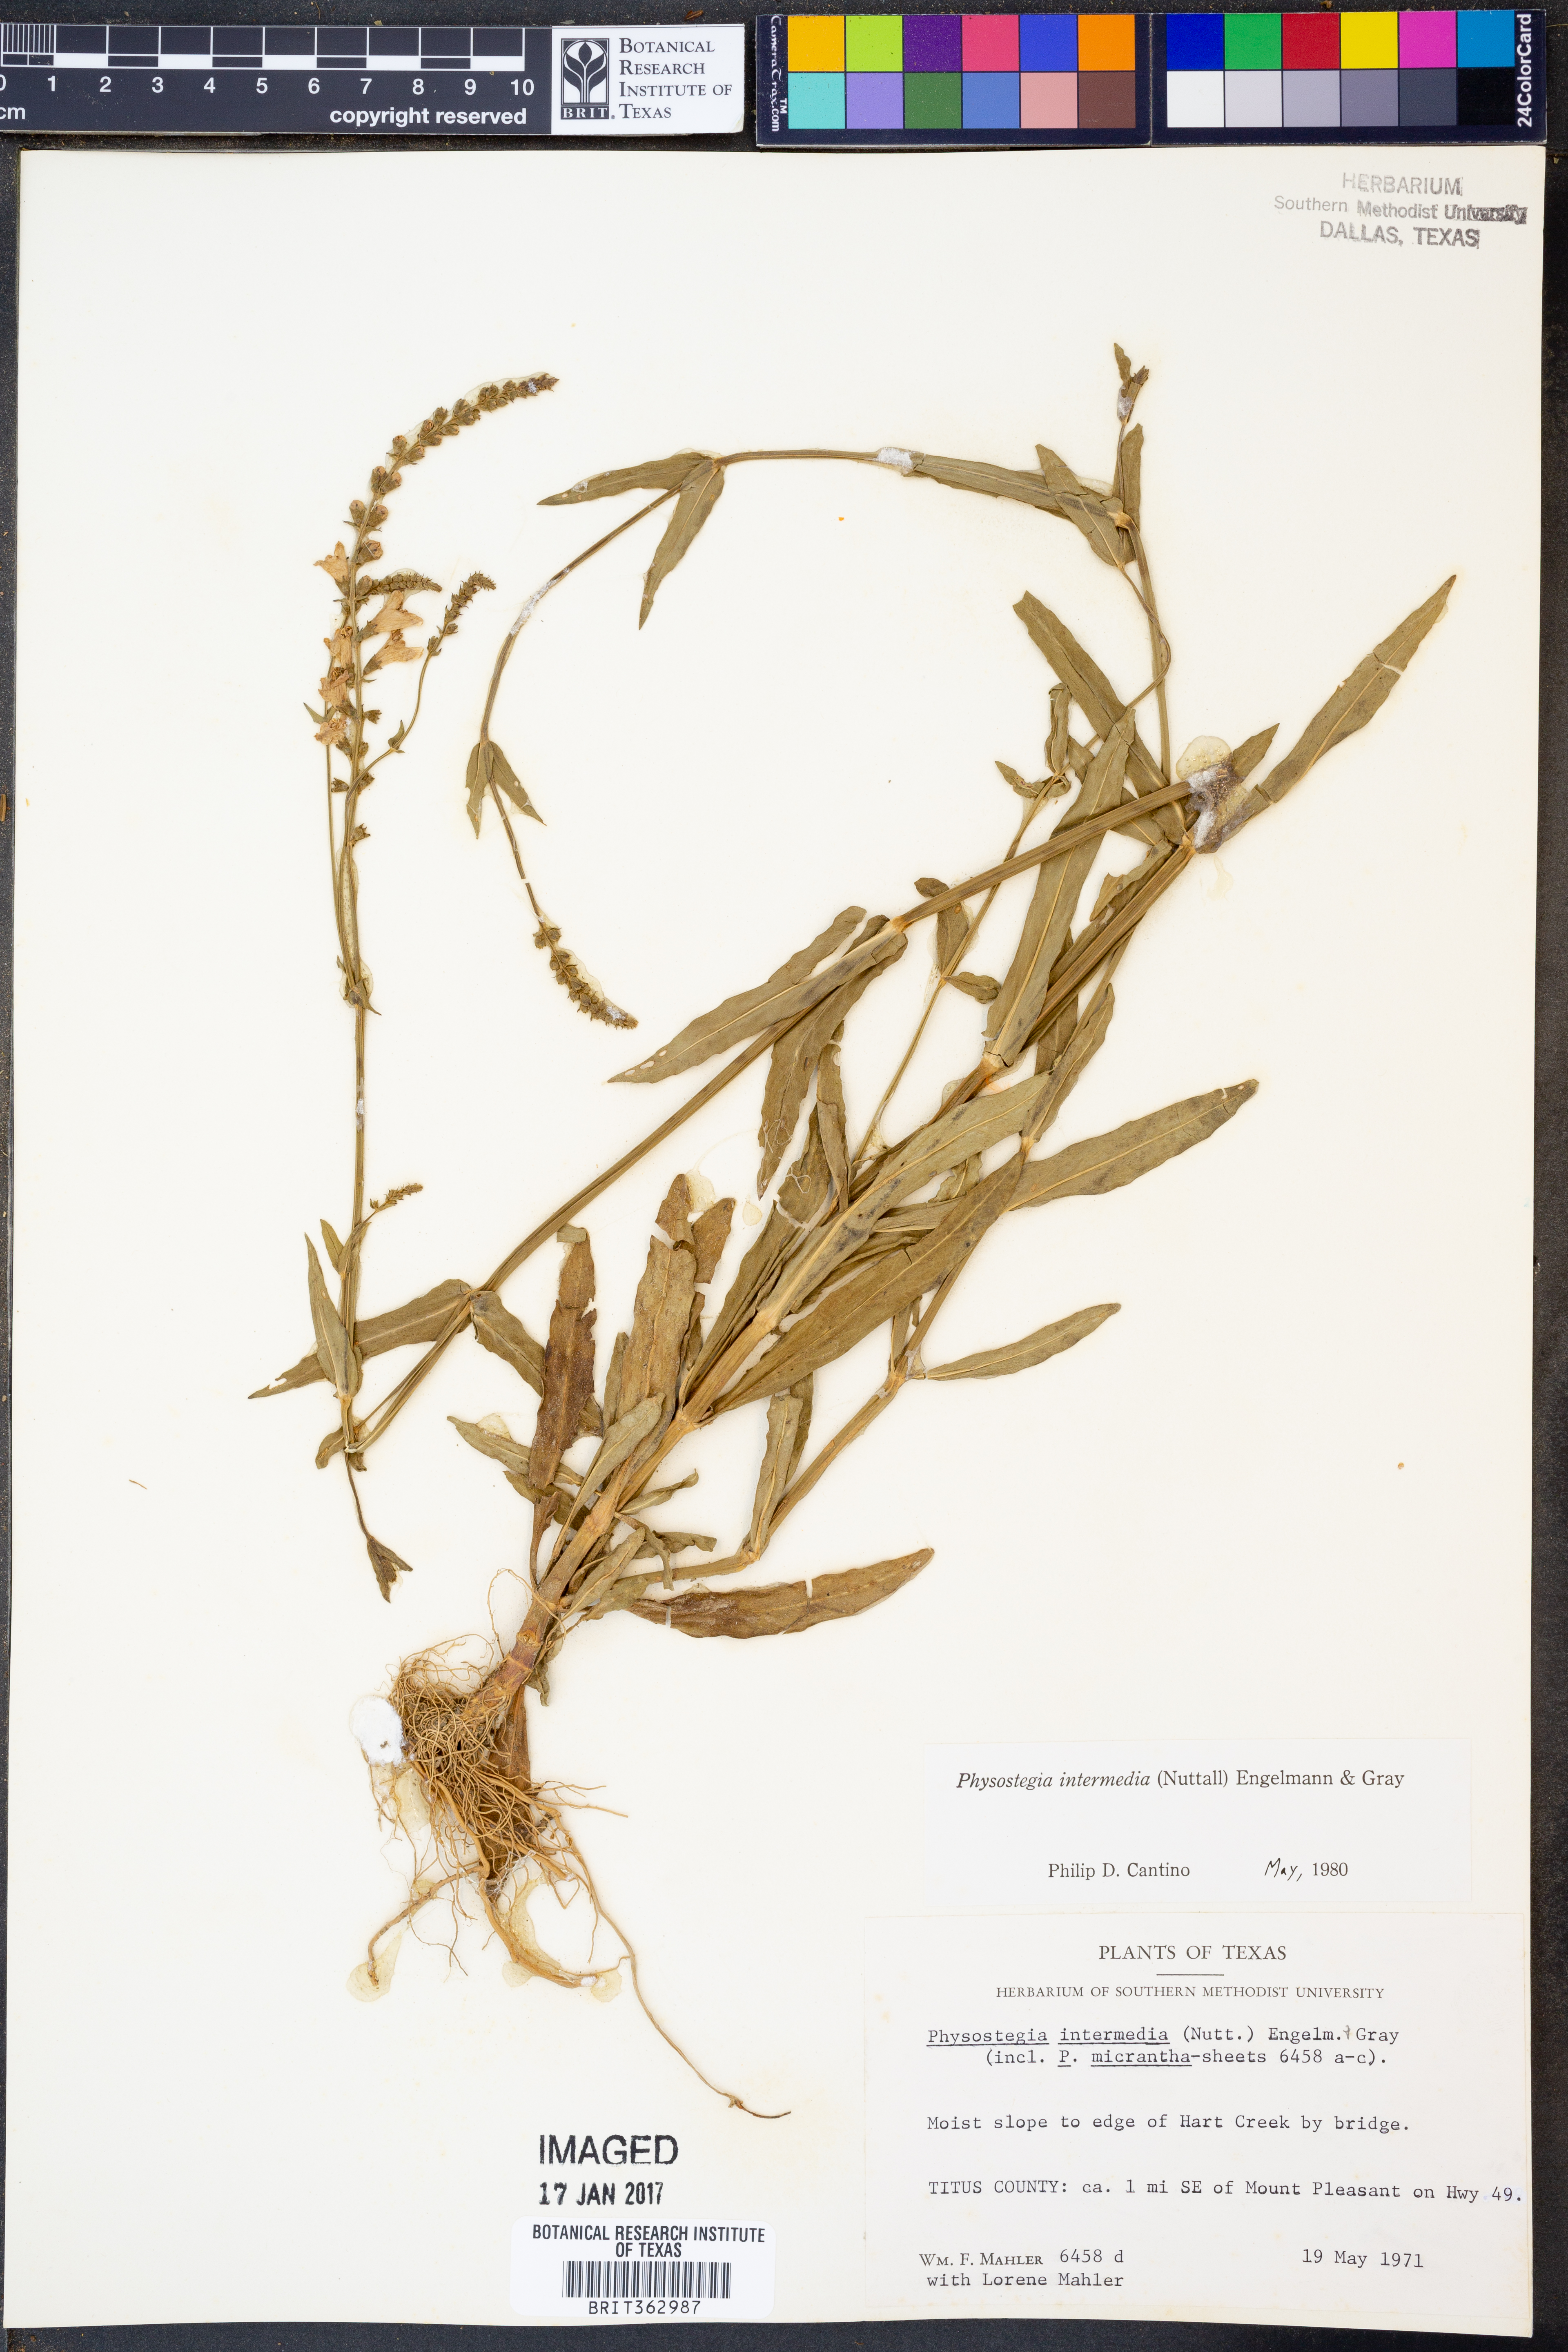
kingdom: Plantae
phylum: Tracheophyta
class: Magnoliopsida
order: Lamiales
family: Lamiaceae
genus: Physostegia
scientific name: Physostegia intermedia
